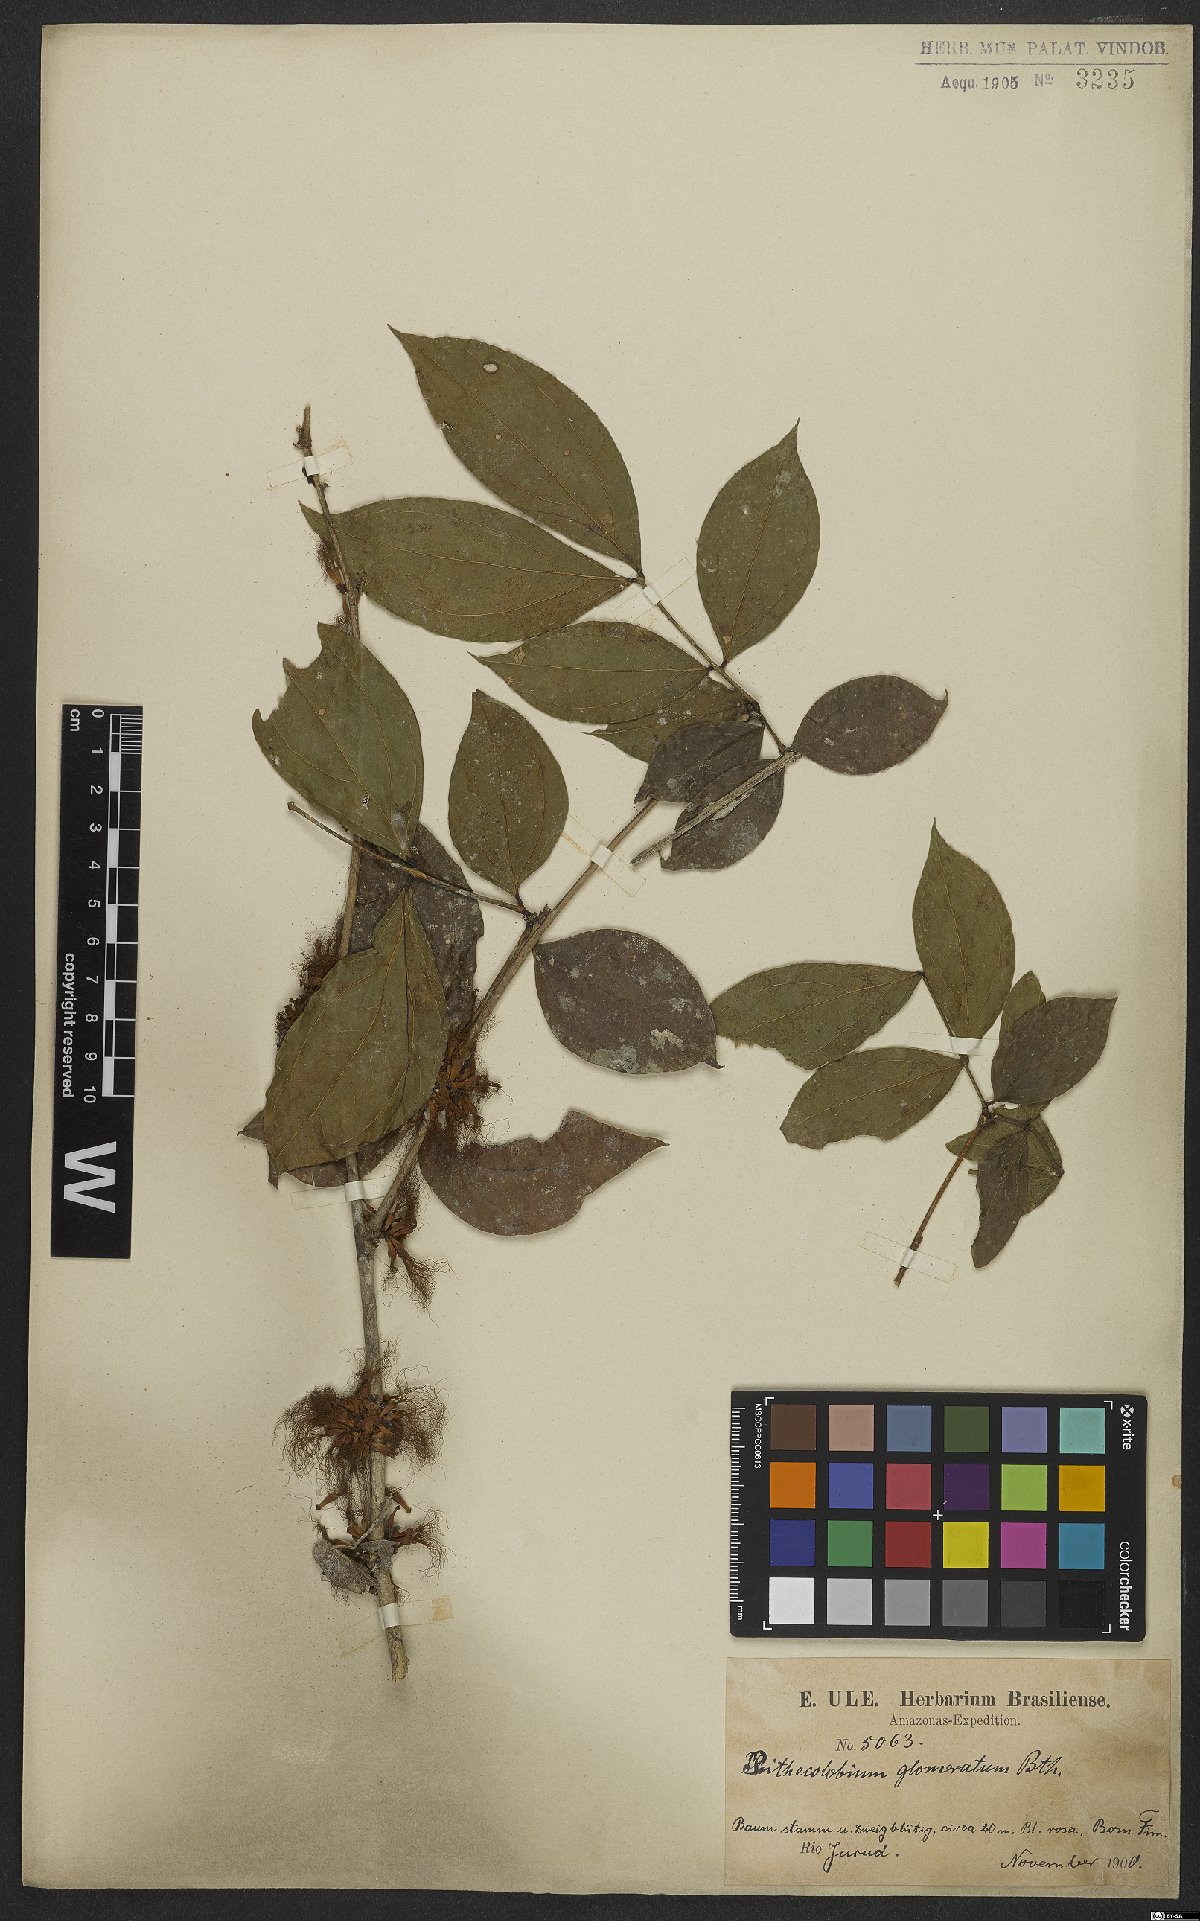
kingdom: Plantae
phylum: Tracheophyta
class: Magnoliopsida
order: Fabales
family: Fabaceae
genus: Zygia
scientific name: Zygia cataractae
